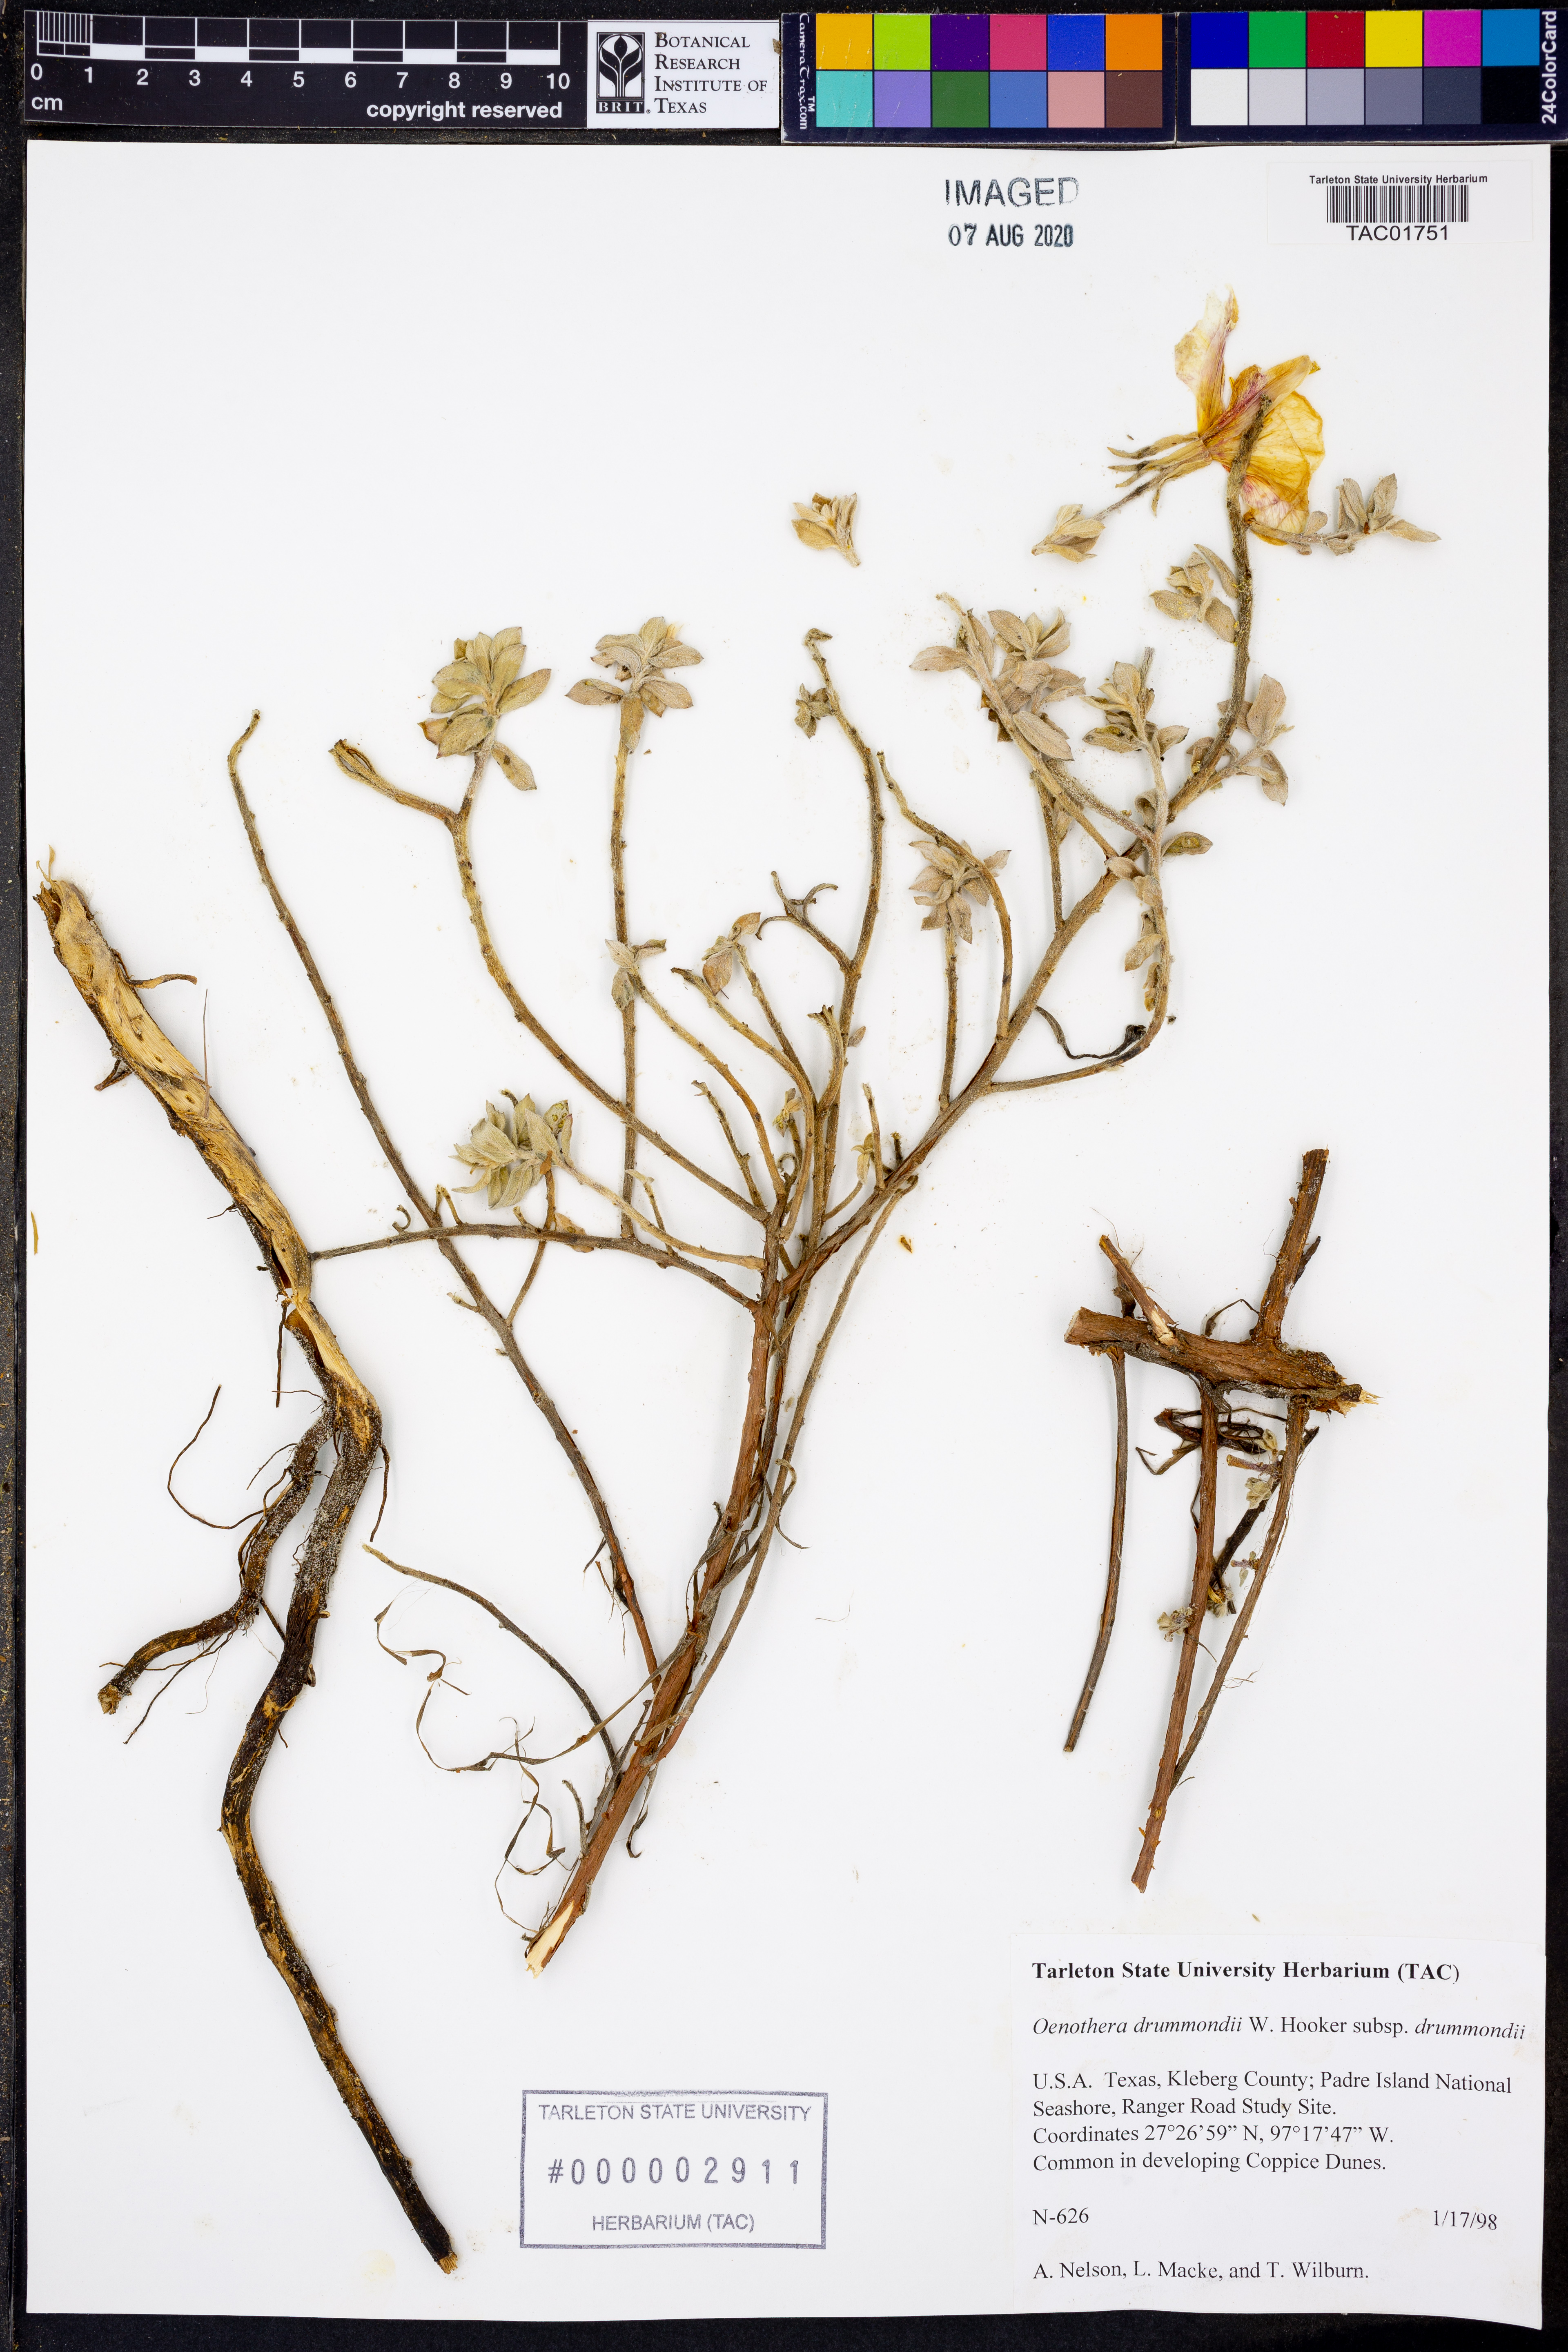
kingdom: Plantae
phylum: Tracheophyta
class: Magnoliopsida
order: Myrtales
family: Onagraceae
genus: Oenothera
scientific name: Oenothera drummondii
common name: Beach evening-primrose
